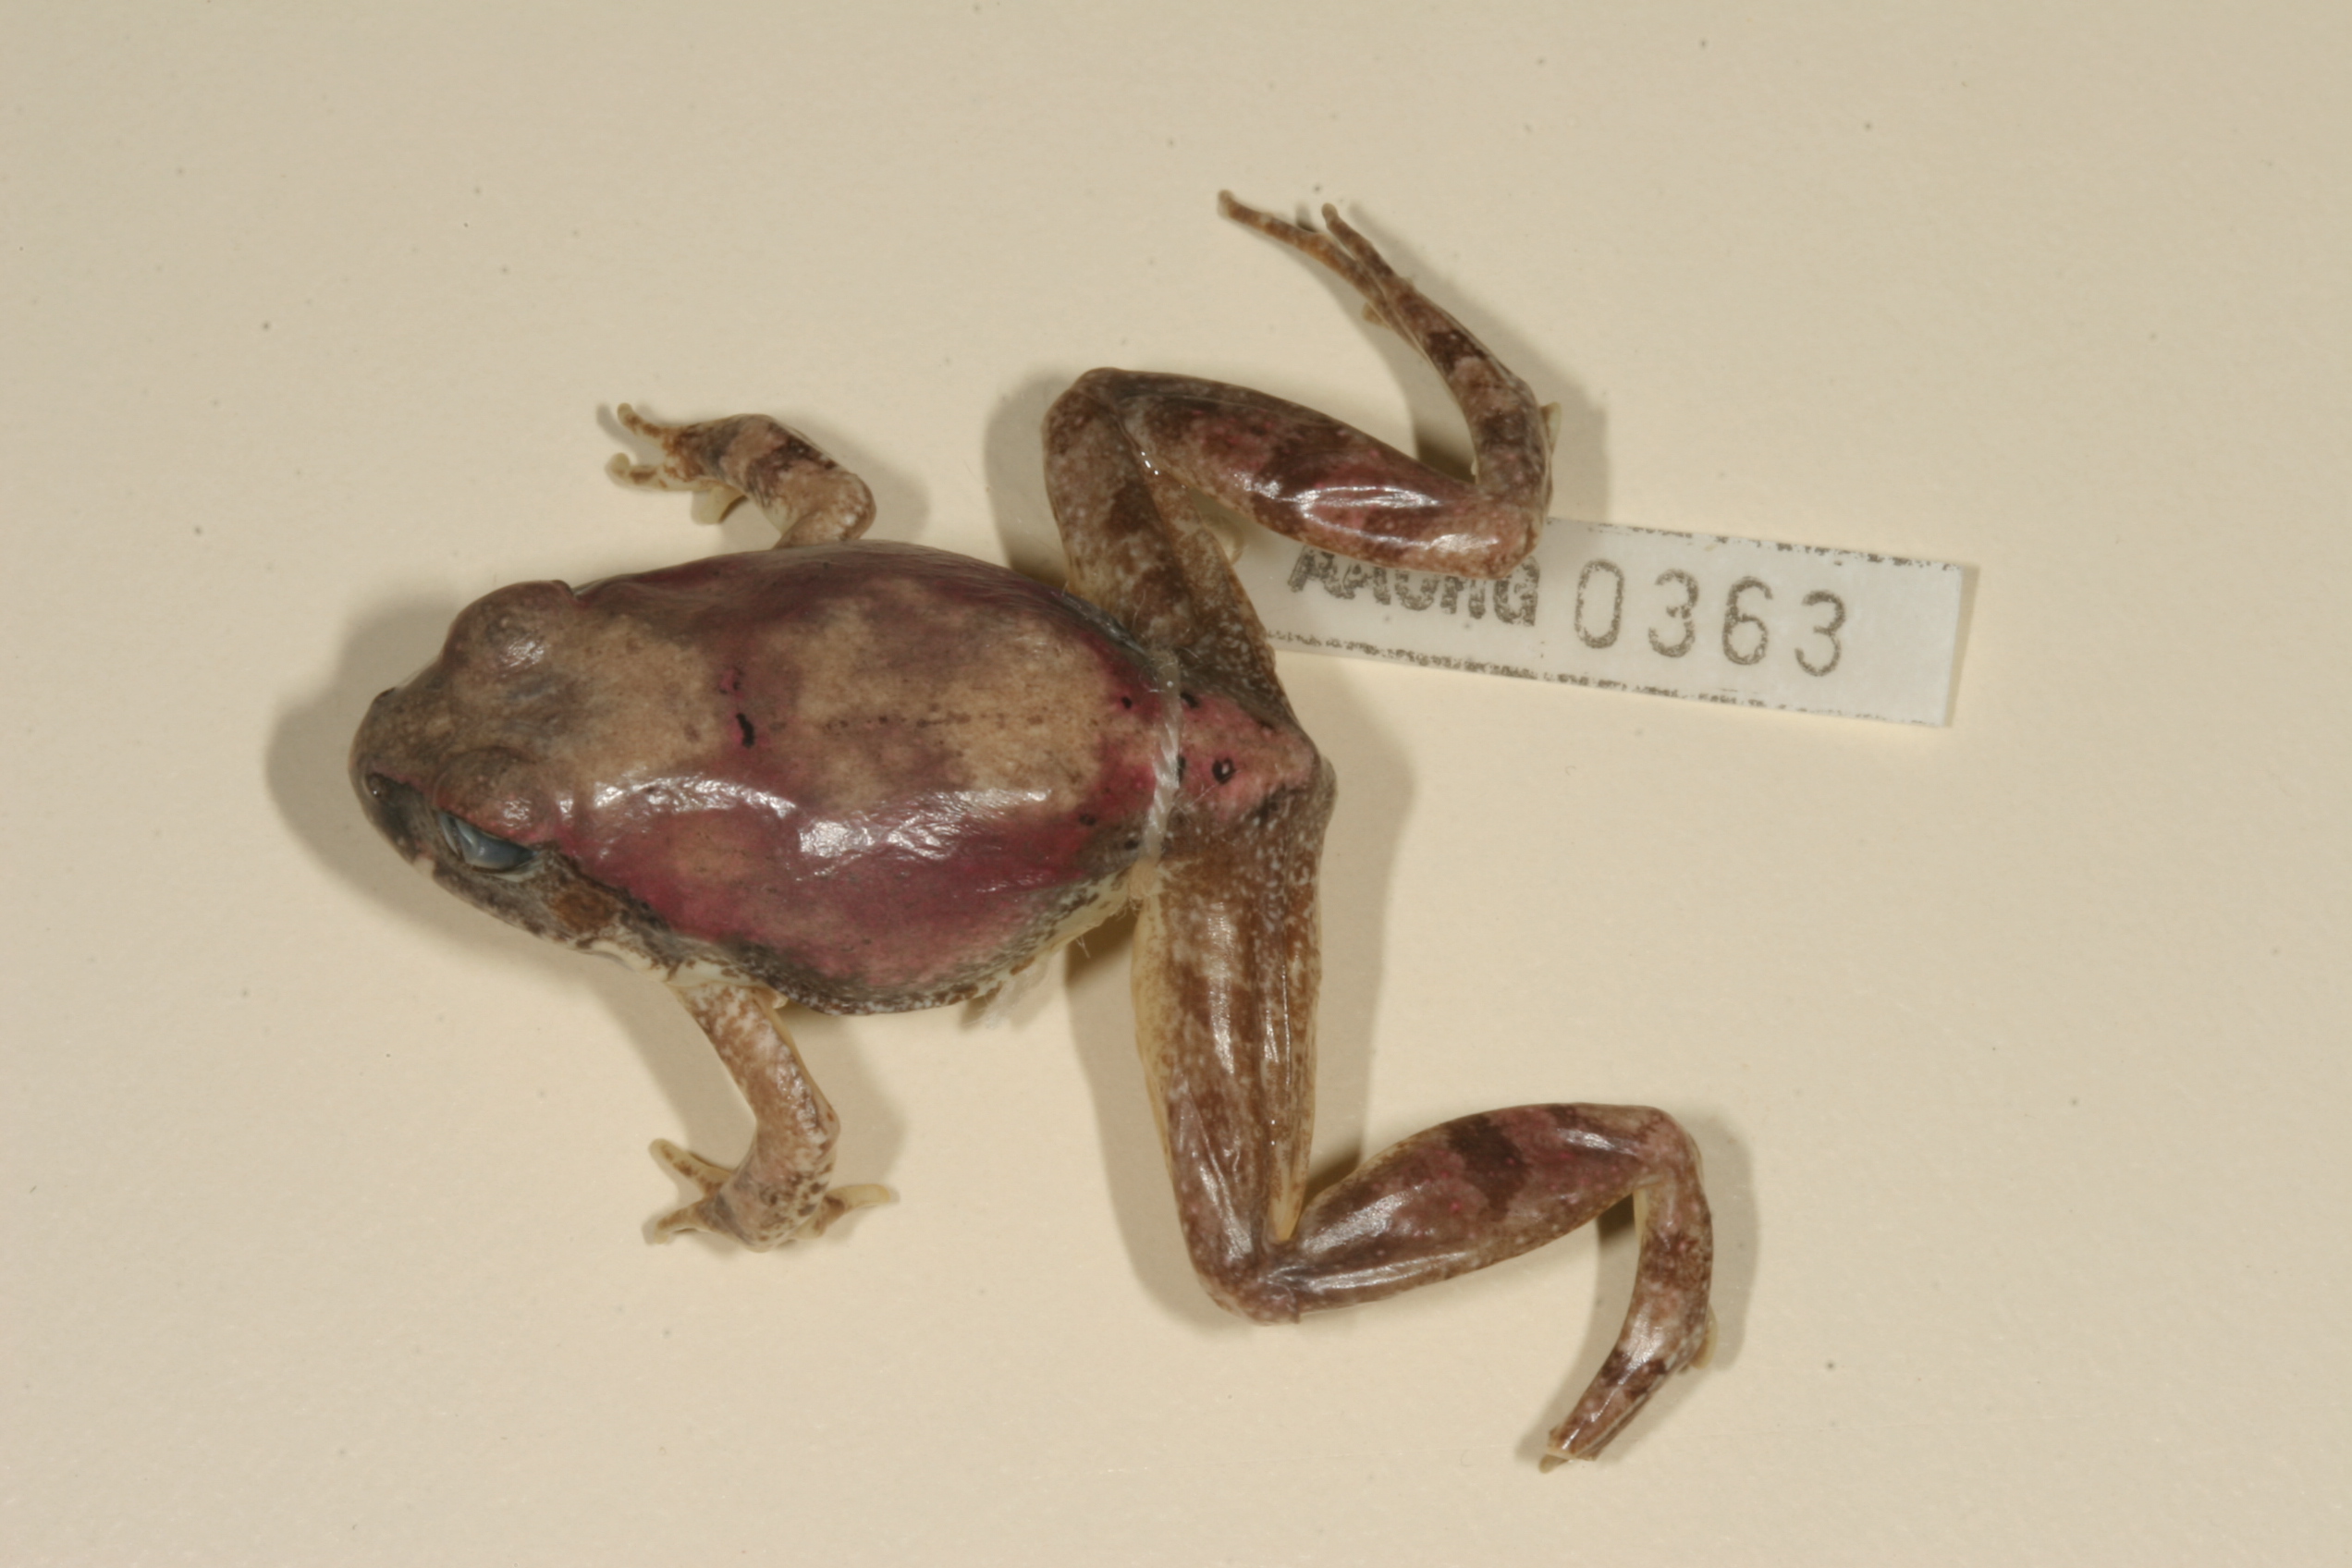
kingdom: Animalia
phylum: Chordata
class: Amphibia
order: Anura
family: Pyxicephalidae
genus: Tomopterna
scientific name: Tomopterna natalensis
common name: Natal sand frog
